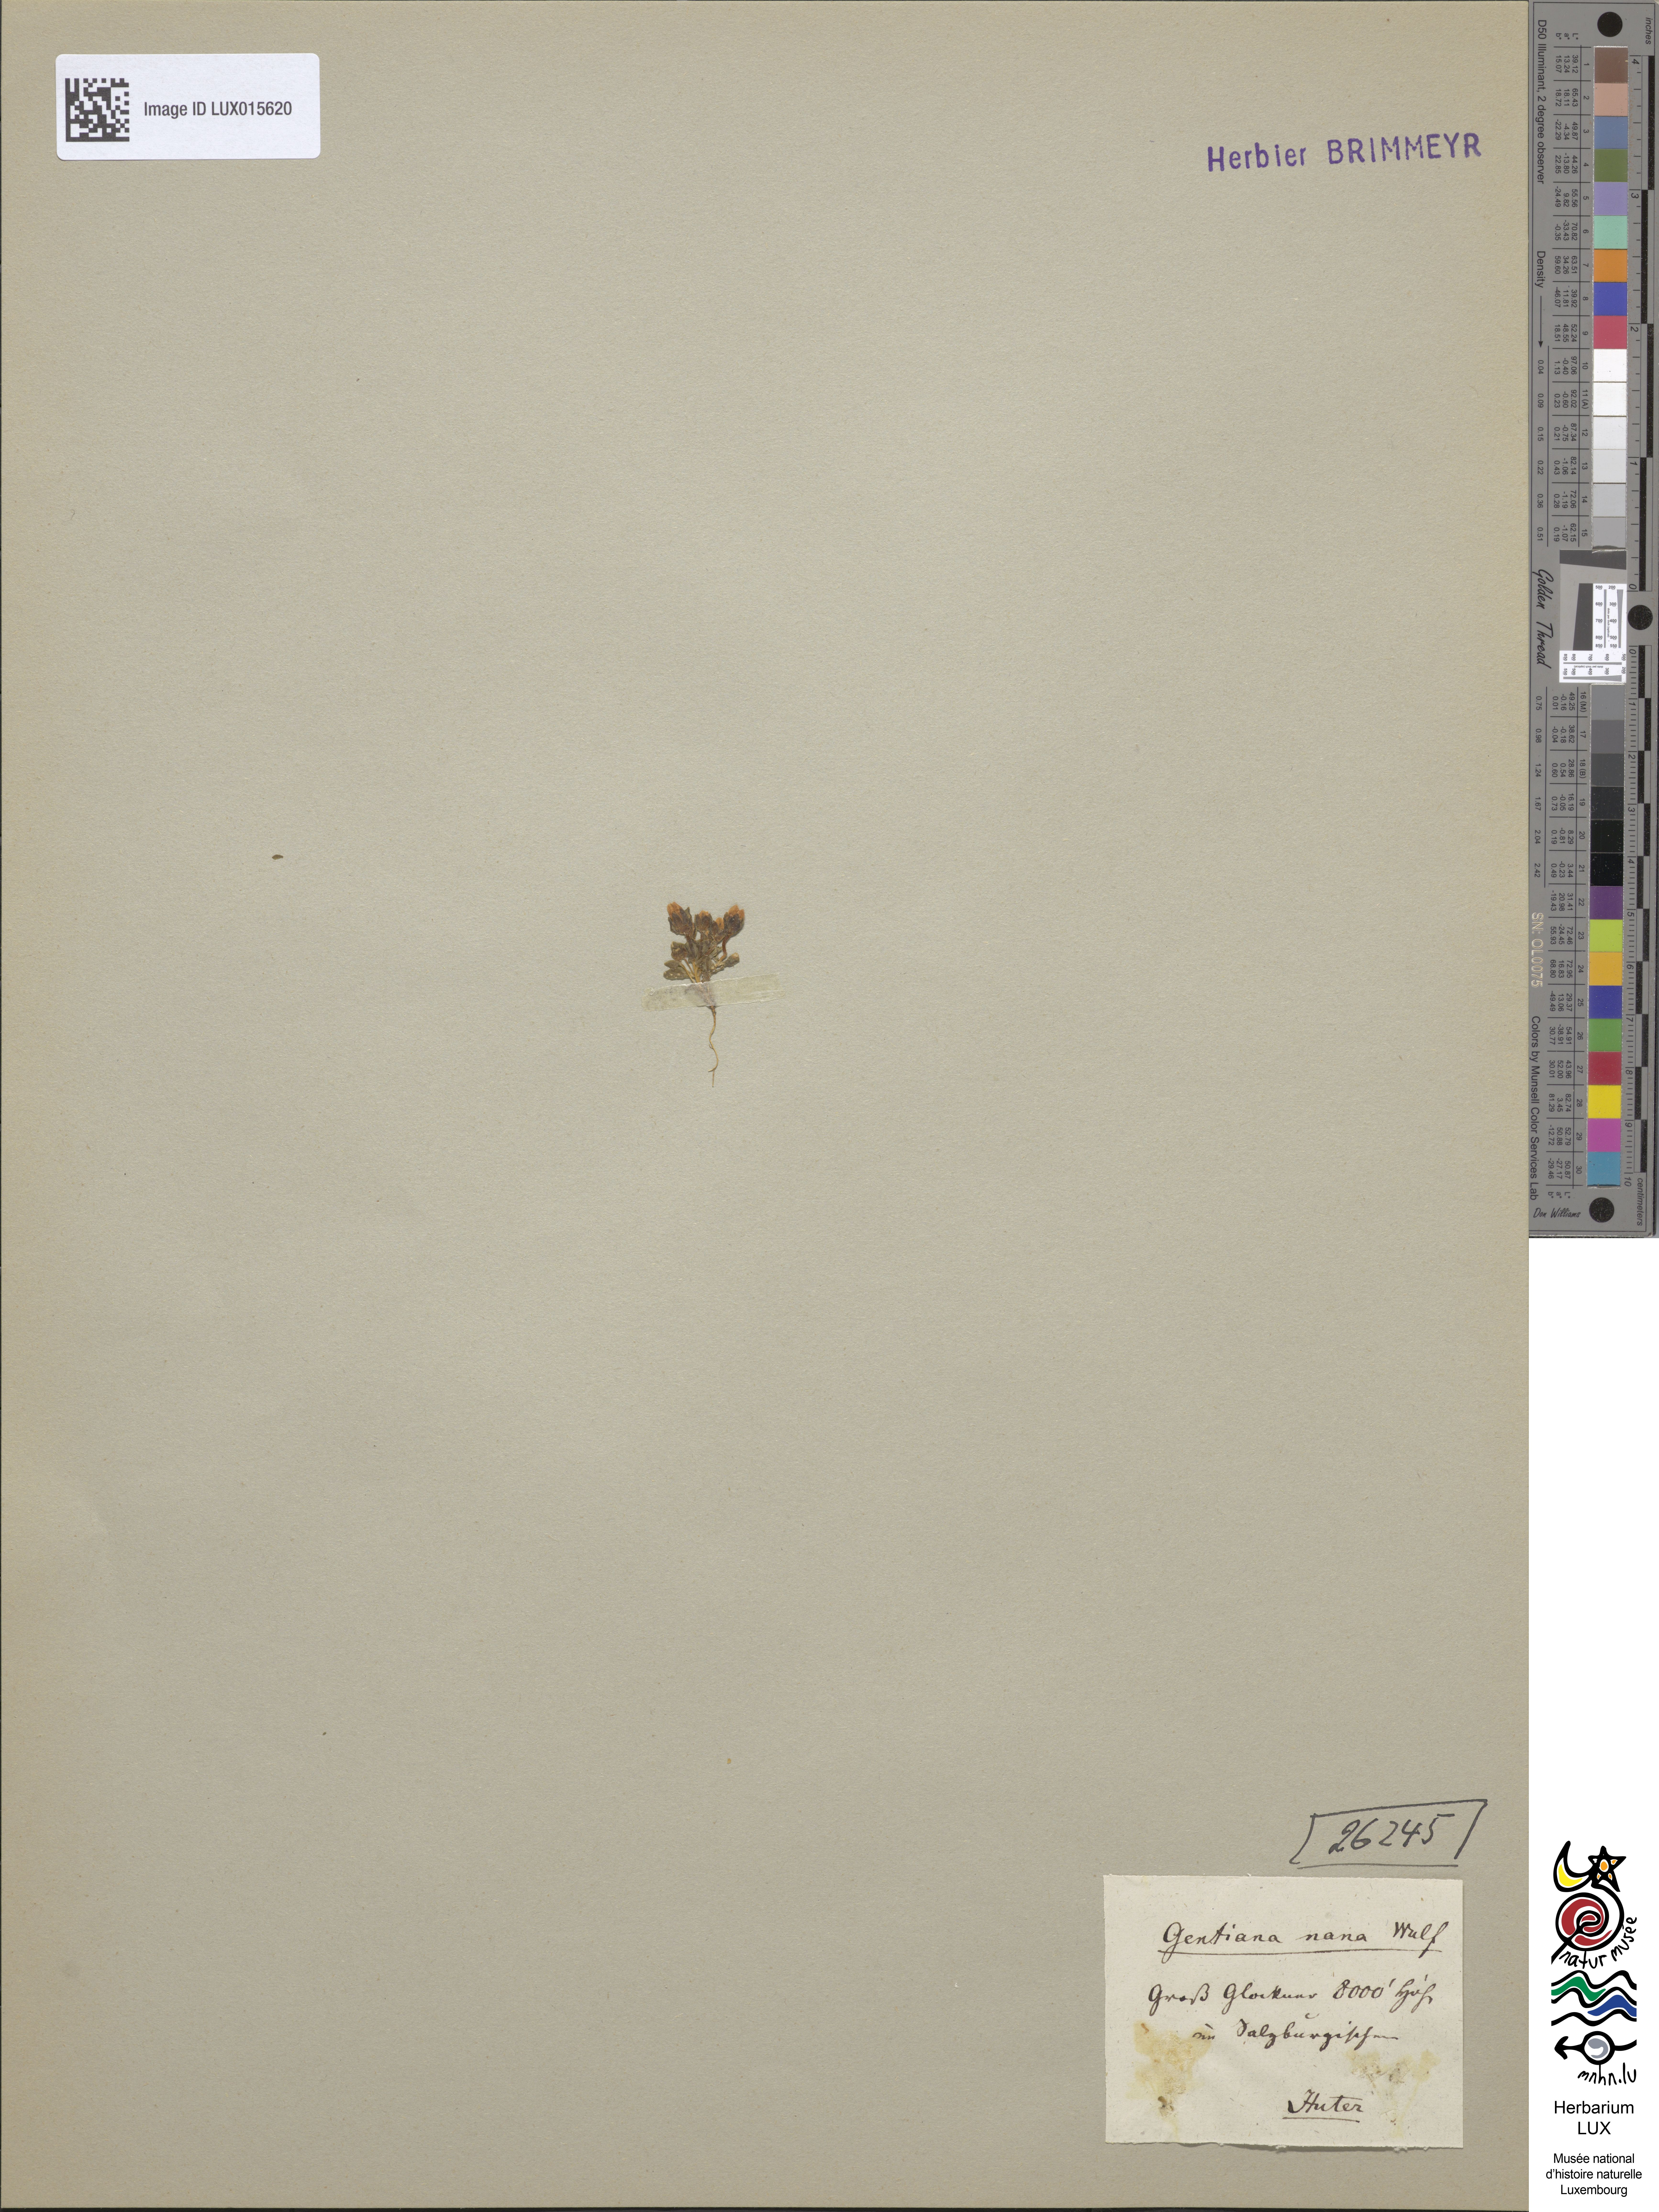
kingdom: Plantae
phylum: Tracheophyta
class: Magnoliopsida
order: Gentianales
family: Gentianaceae
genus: Comastoma
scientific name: Comastoma nanum
